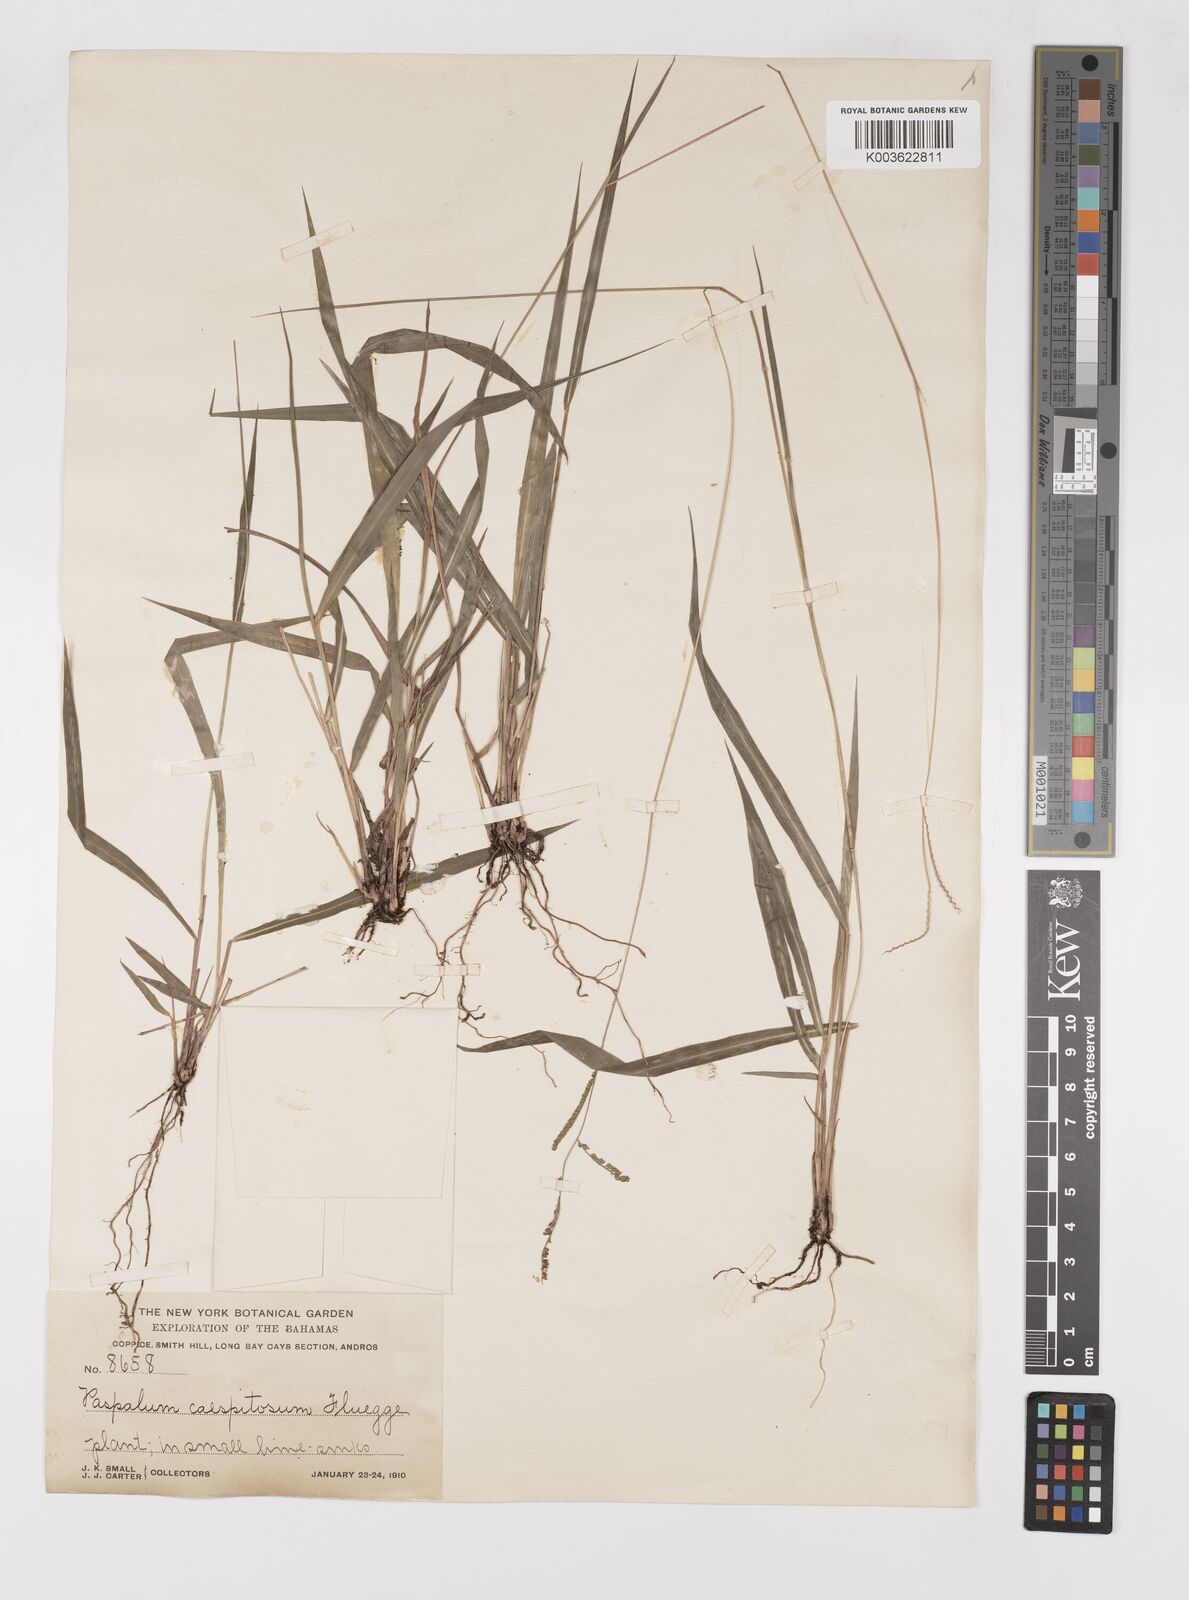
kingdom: Plantae
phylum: Tracheophyta
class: Liliopsida
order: Poales
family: Poaceae
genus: Paspalum
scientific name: Paspalum caespitosum
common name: Blue crowngrass
